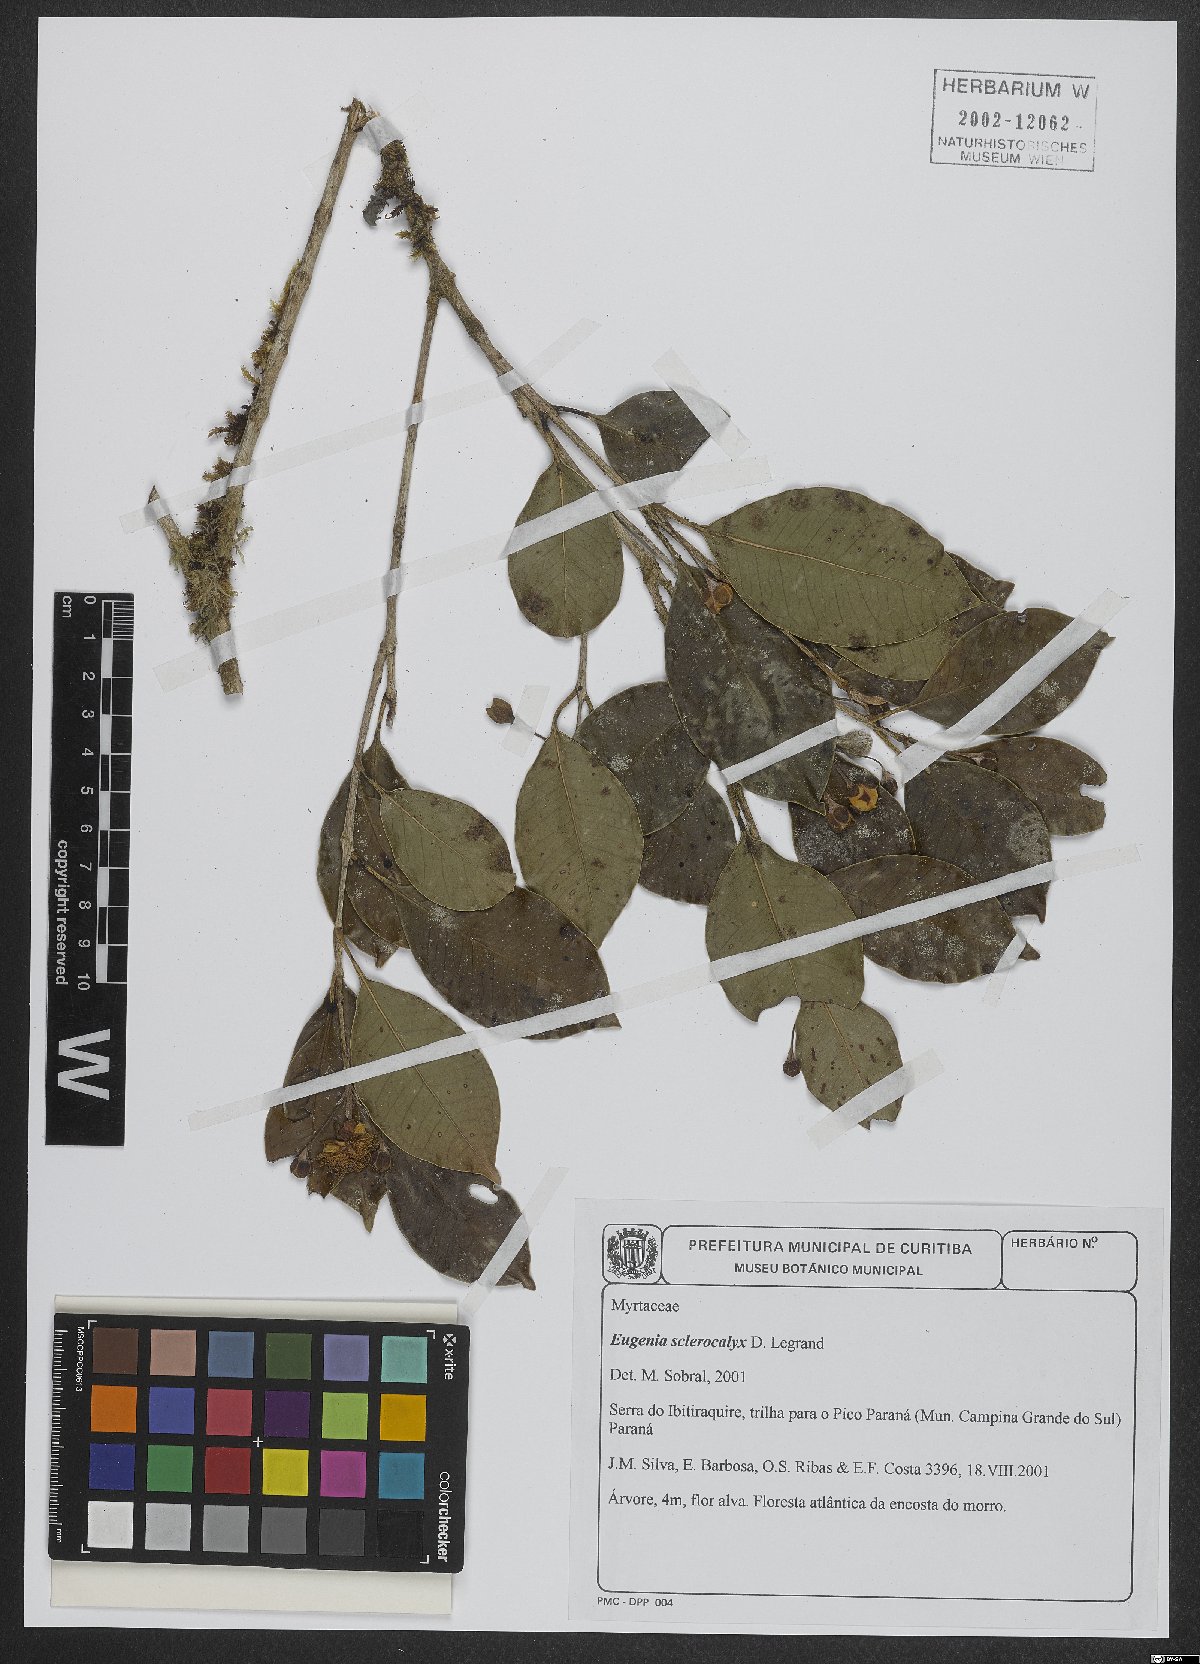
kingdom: Plantae
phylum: Tracheophyta
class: Magnoliopsida
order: Myrtales
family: Myrtaceae
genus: Eugenia
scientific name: Eugenia sclerocalyx
